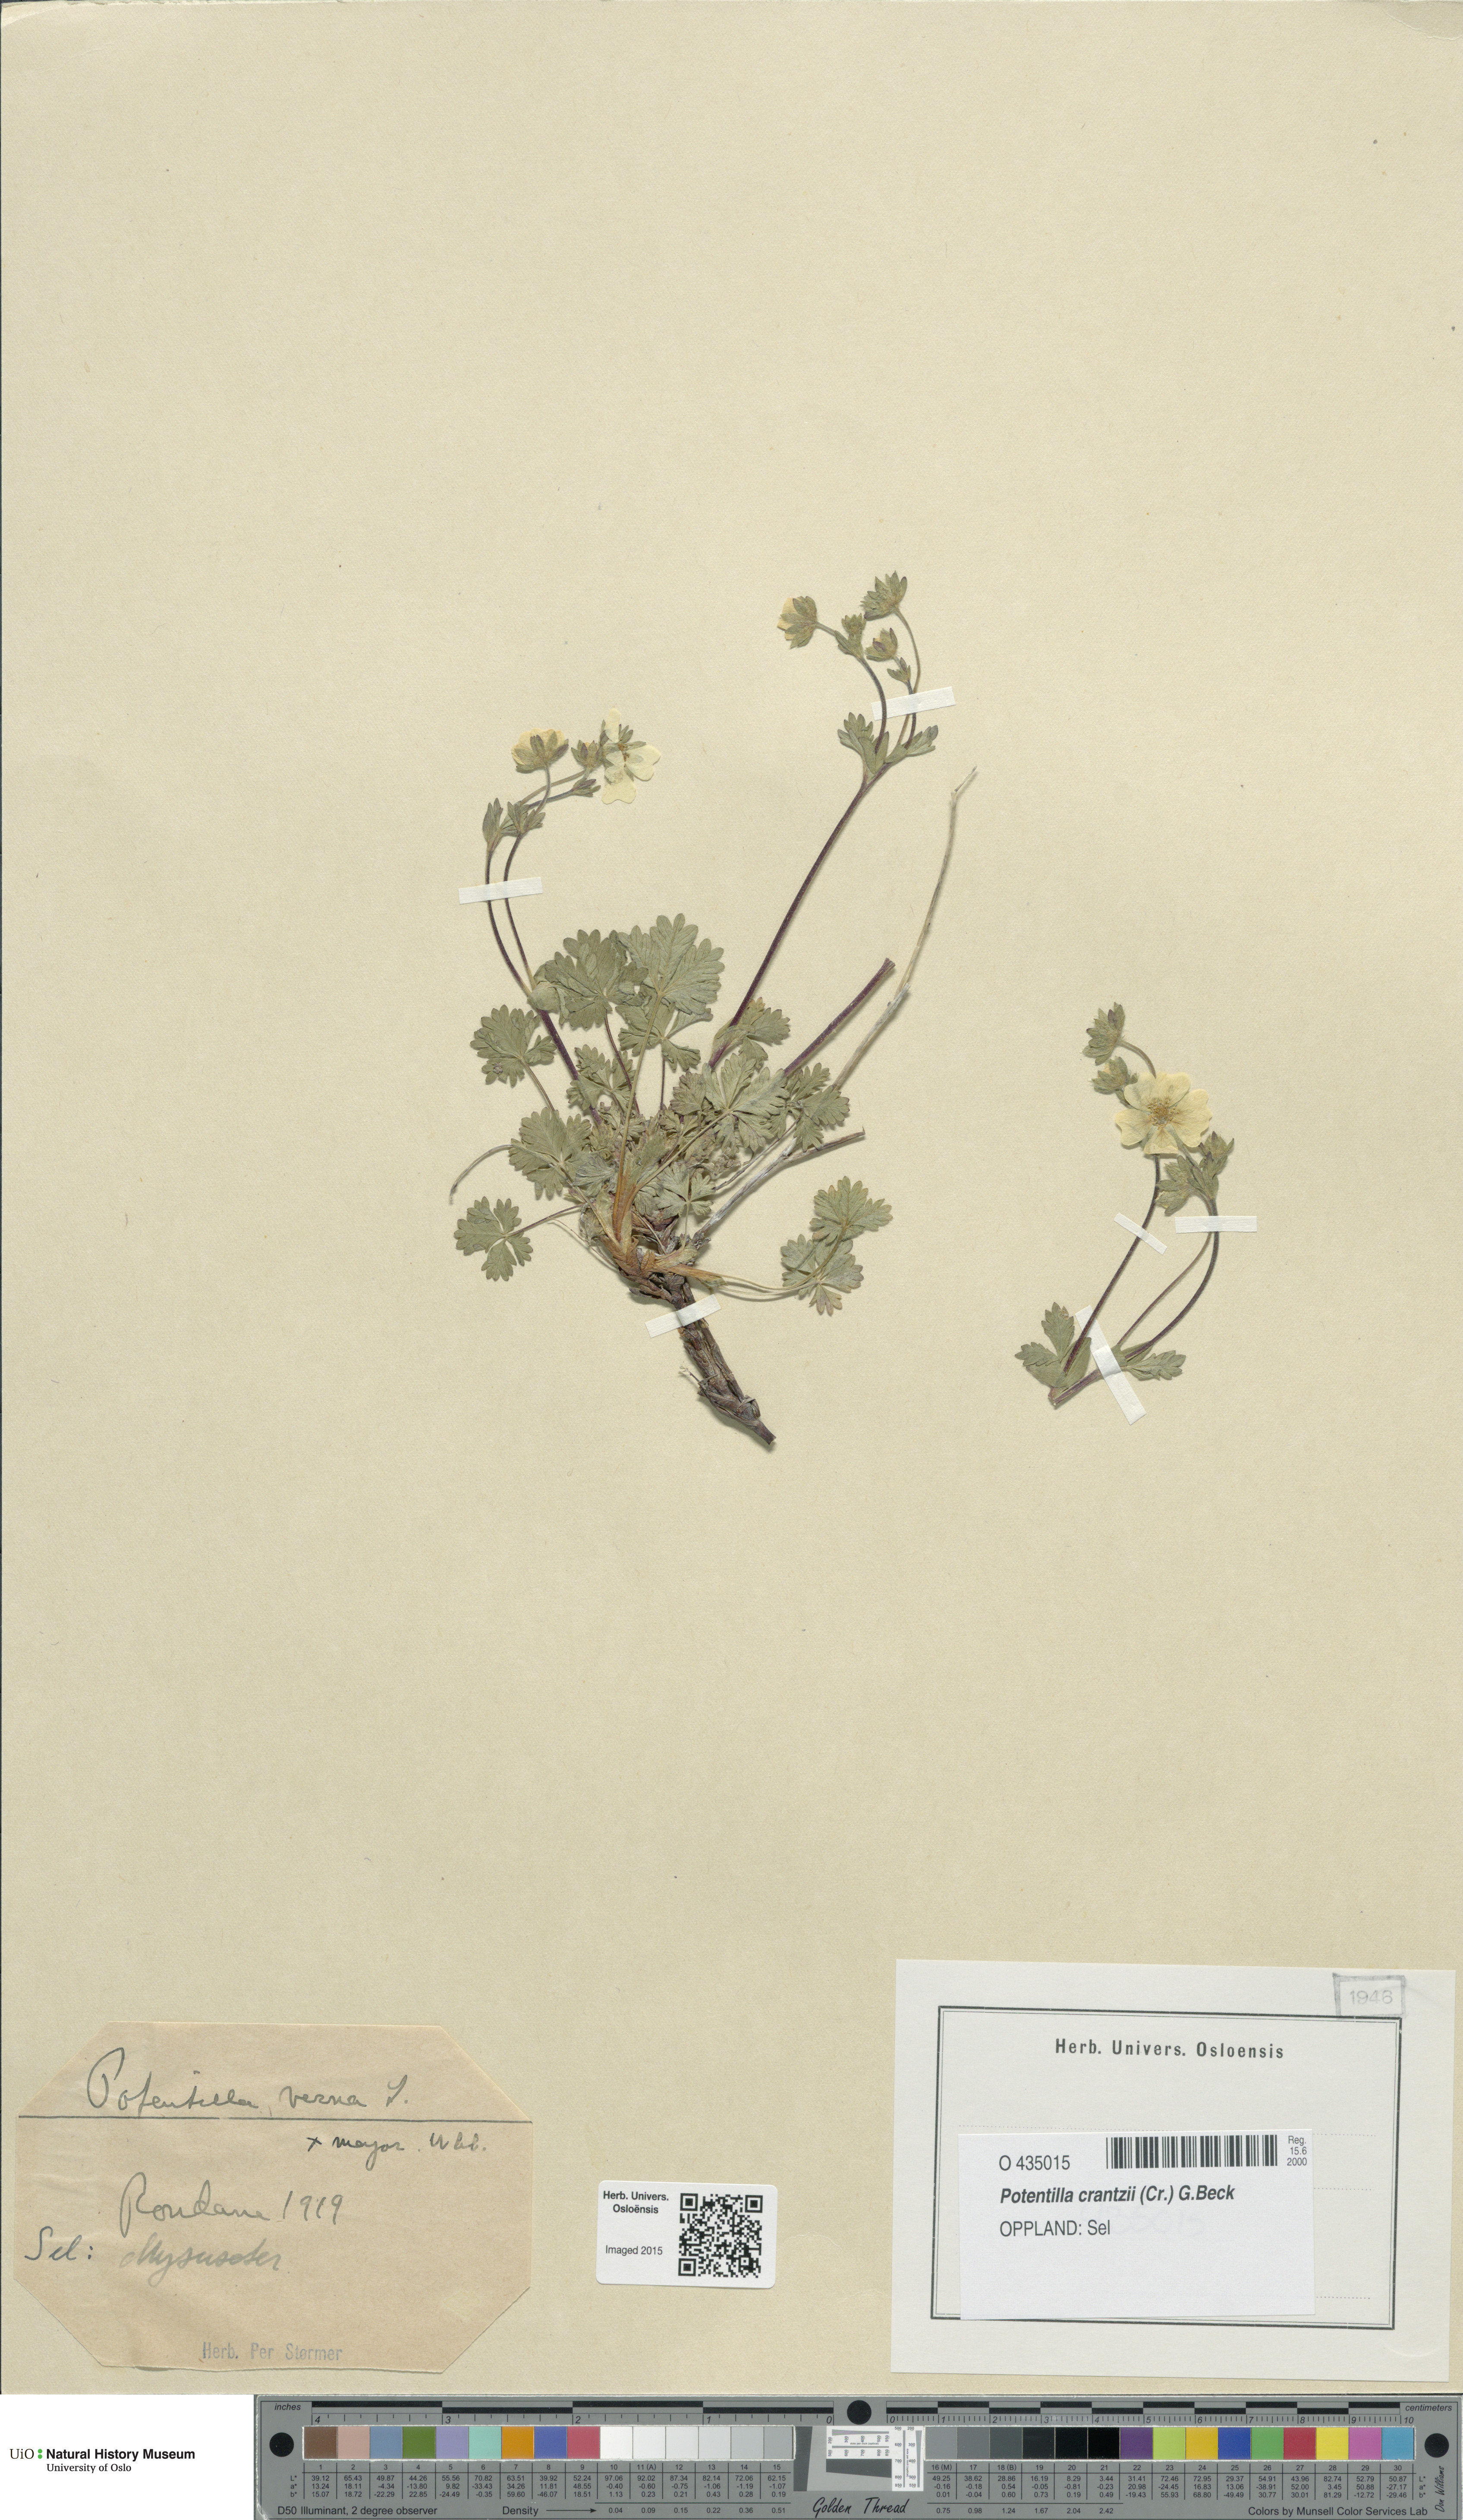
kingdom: Plantae
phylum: Tracheophyta
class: Magnoliopsida
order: Rosales
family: Rosaceae
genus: Potentilla
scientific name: Potentilla crantzii
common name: Alpine cinquefoil
